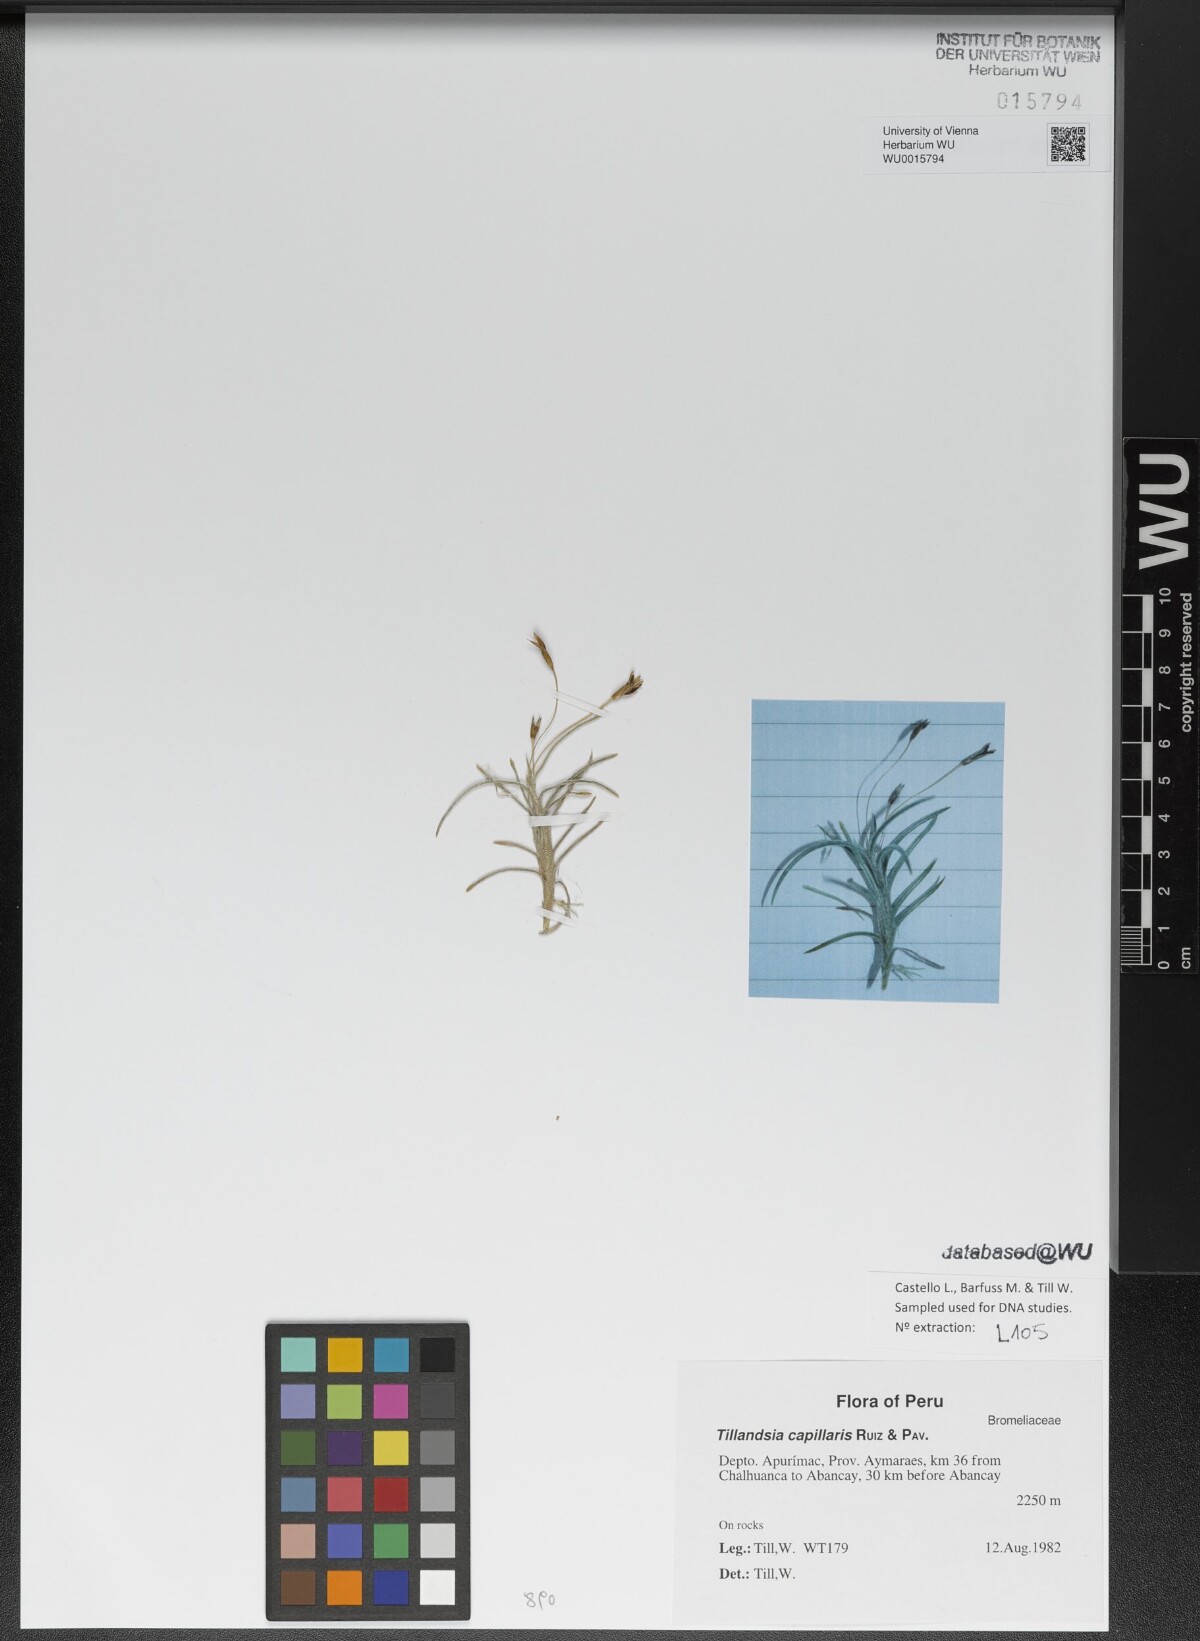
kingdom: Plantae
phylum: Tracheophyta
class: Liliopsida
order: Poales
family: Bromeliaceae
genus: Tillandsia
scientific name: Tillandsia capillaris
